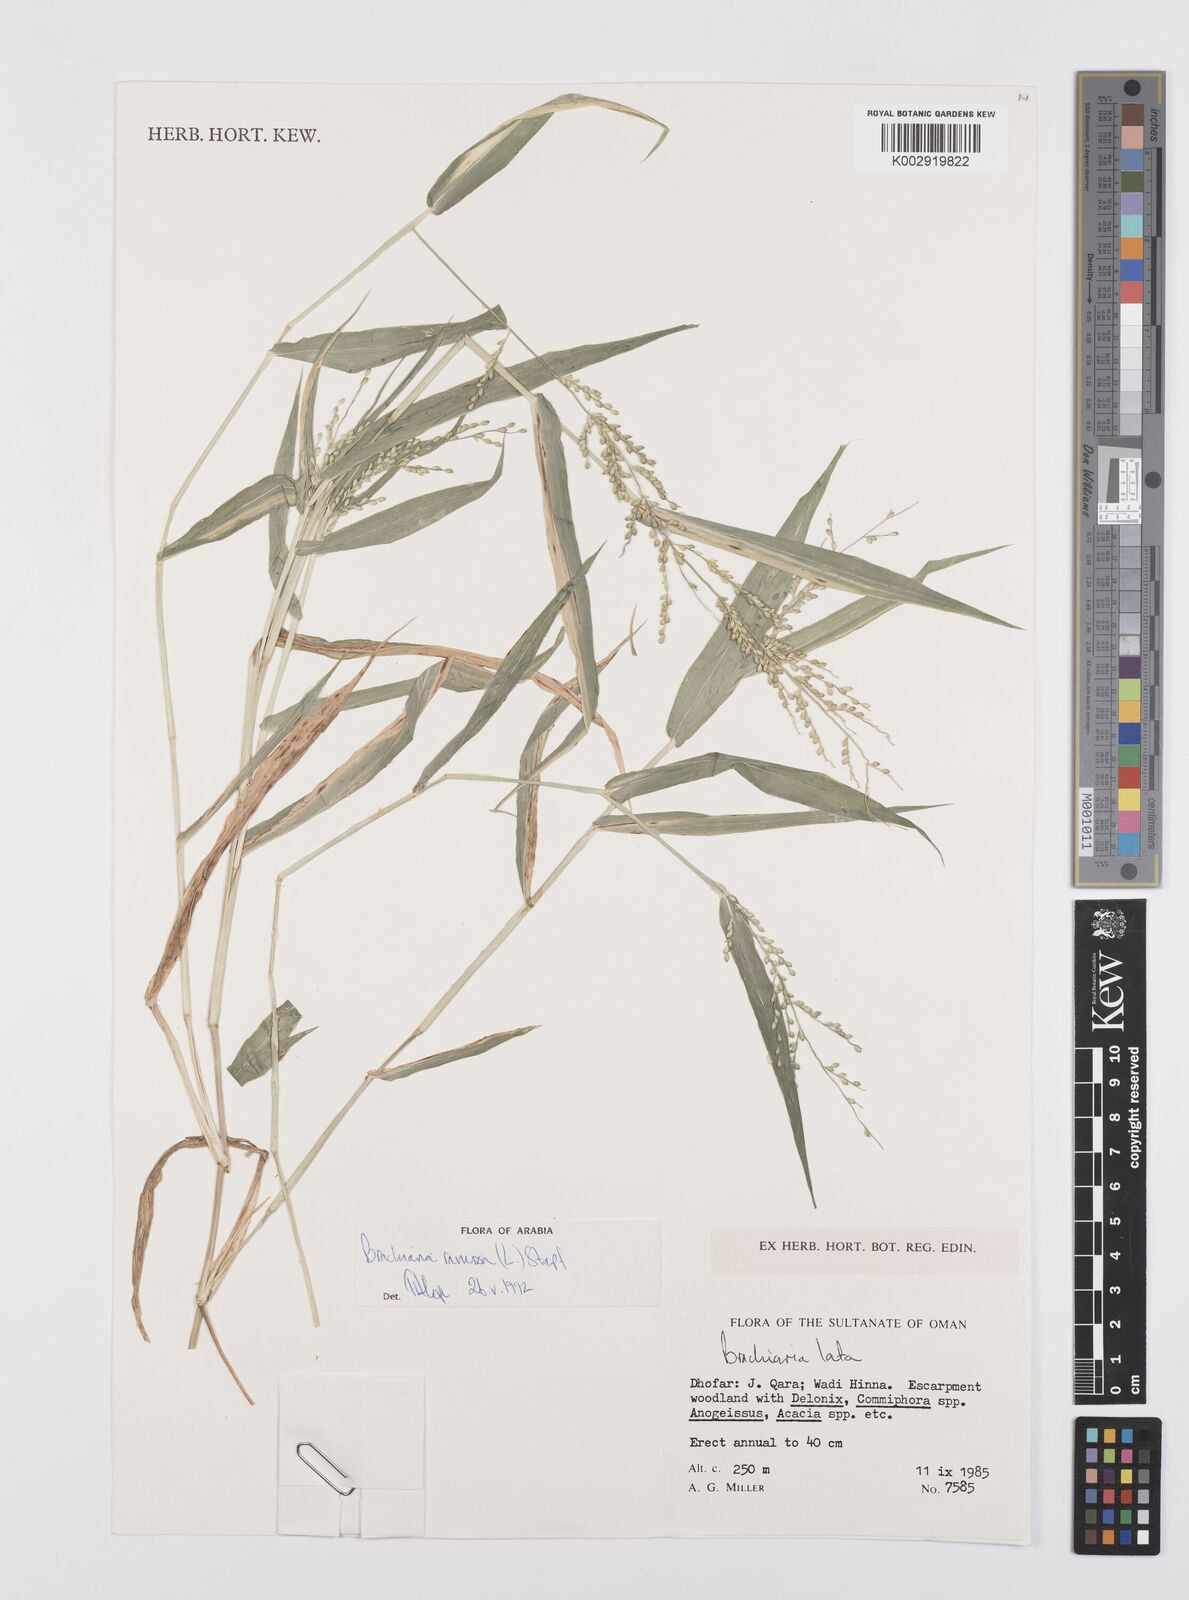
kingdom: Plantae
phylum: Tracheophyta
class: Liliopsida
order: Poales
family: Poaceae
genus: Urochloa
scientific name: Urochloa ramosa
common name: Browntop millet
